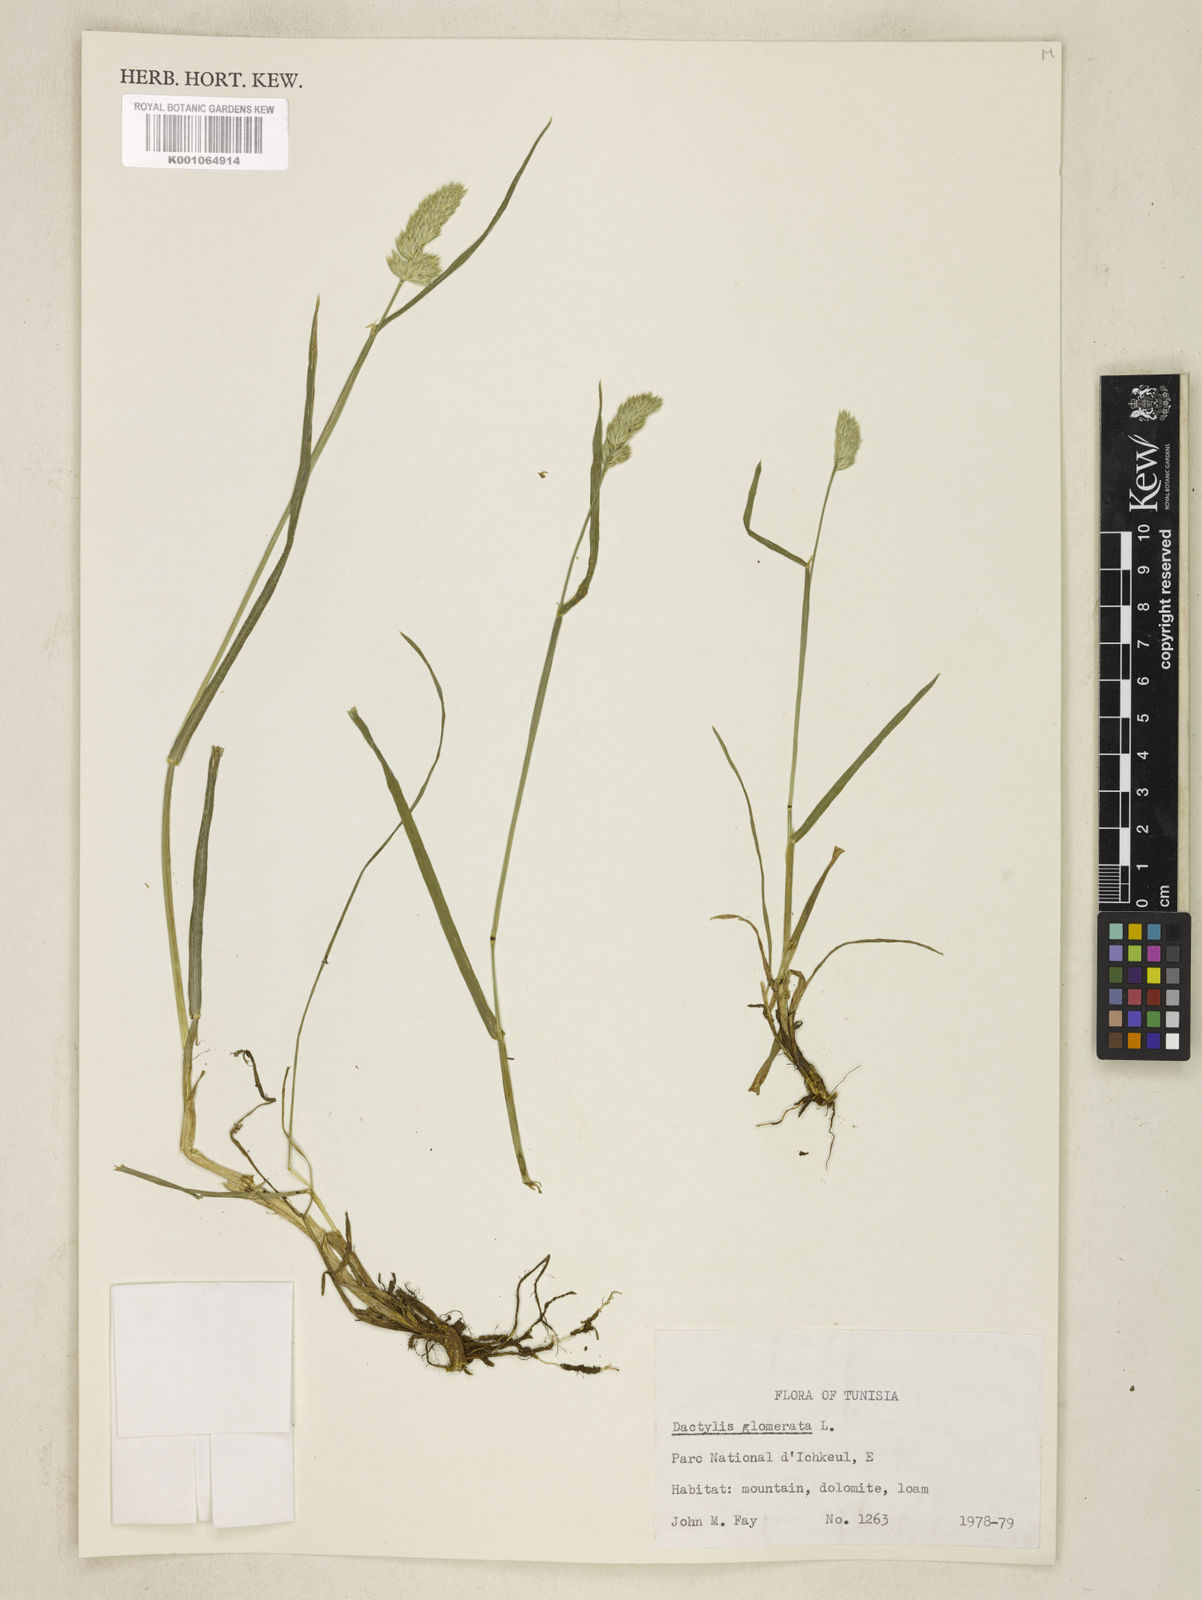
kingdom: Plantae
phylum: Tracheophyta
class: Liliopsida
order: Poales
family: Poaceae
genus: Dactylis
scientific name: Dactylis glomerata
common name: Orchardgrass
